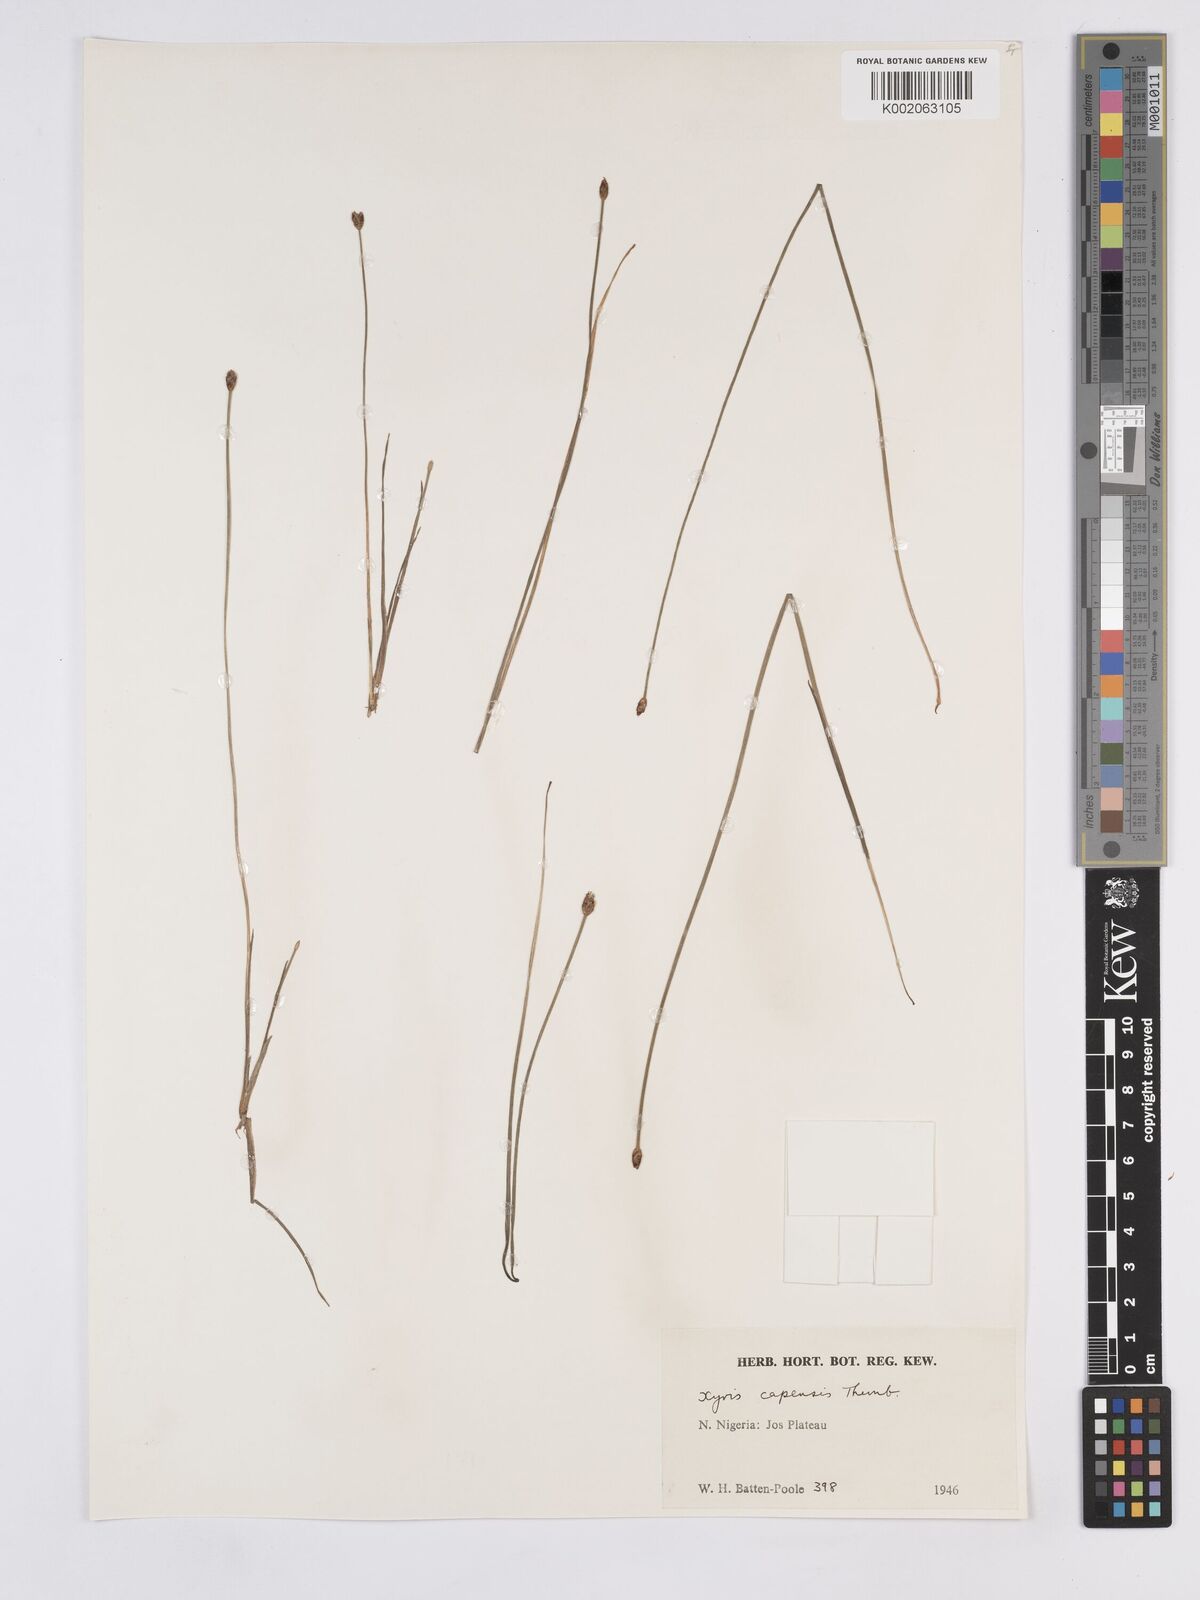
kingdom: Plantae
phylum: Tracheophyta
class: Liliopsida
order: Poales
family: Xyridaceae
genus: Xyris
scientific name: Xyris capensis
